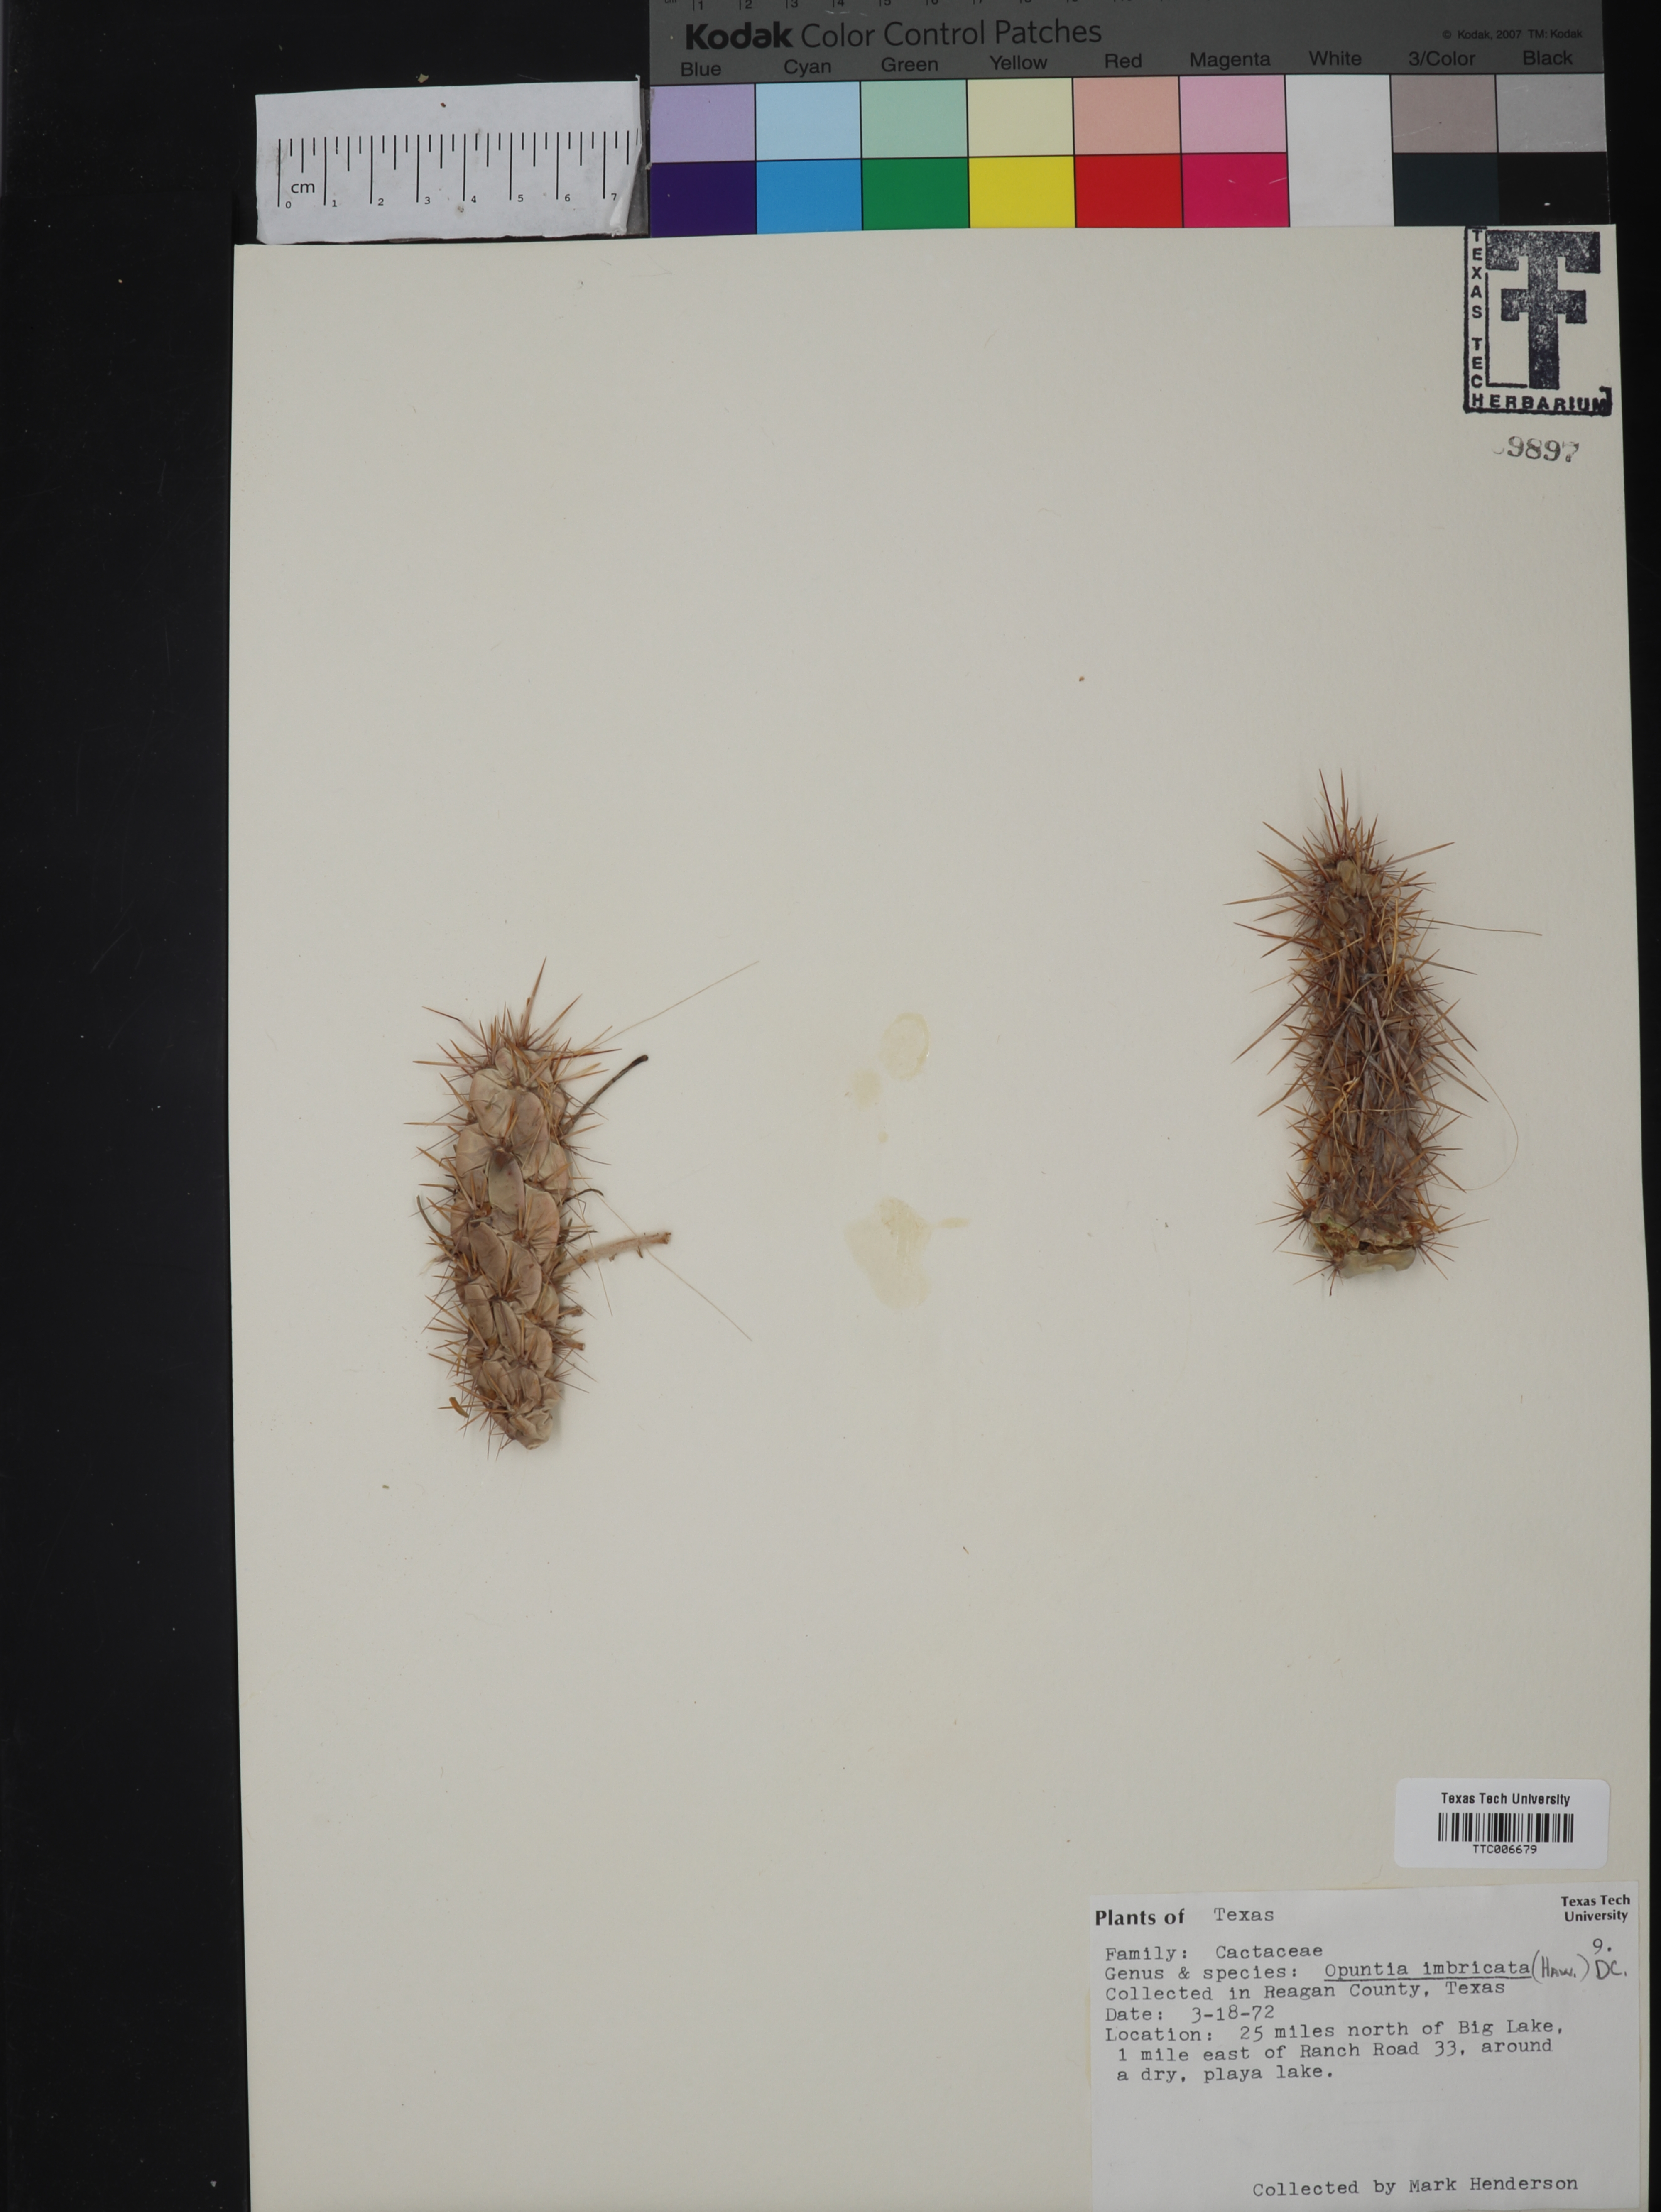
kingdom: Plantae
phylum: Tracheophyta
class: Magnoliopsida
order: Caryophyllales
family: Cactaceae
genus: Cylindropuntia
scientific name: Cylindropuntia imbricata
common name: Candelabrum cactus
